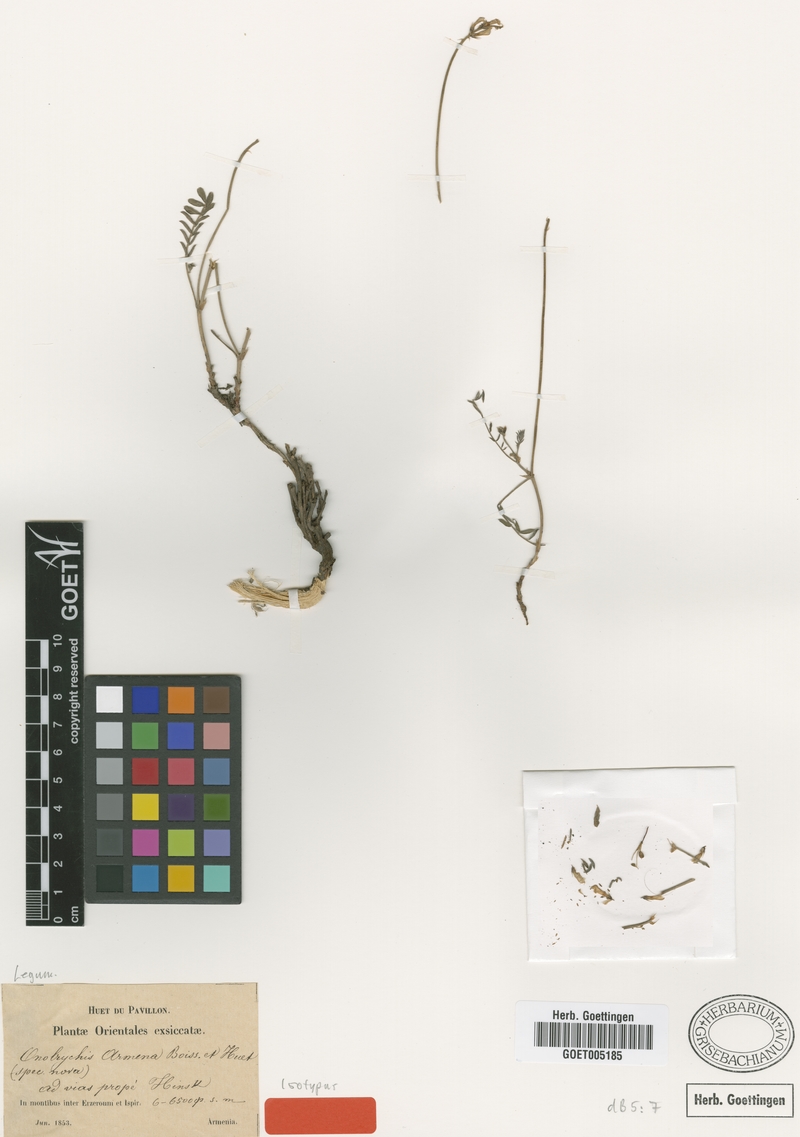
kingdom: Plantae
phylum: Tracheophyta
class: Magnoliopsida
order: Fabales
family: Fabaceae
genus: Onobrychis
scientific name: Onobrychis arenaria
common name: Sand esparcet
